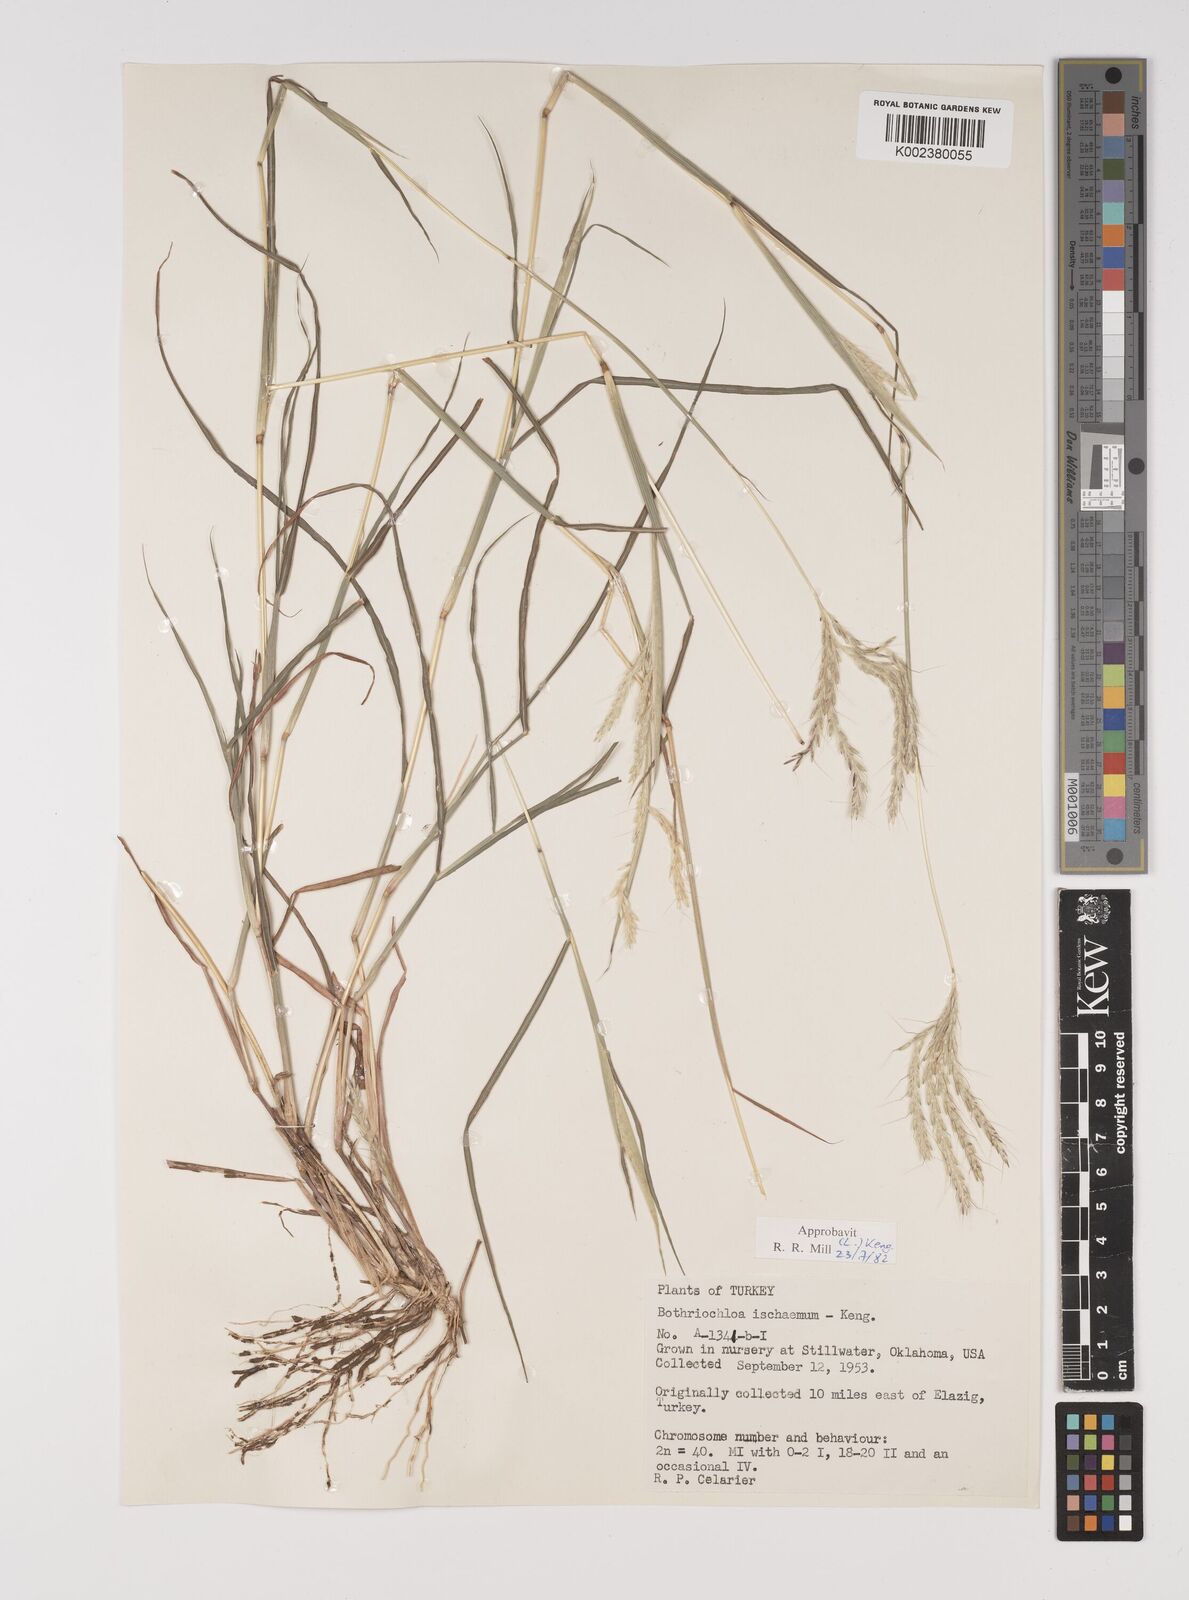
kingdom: Plantae
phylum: Tracheophyta
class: Liliopsida
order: Poales
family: Poaceae
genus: Bothriochloa
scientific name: Bothriochloa ischaemum
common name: Yellow bluestem
